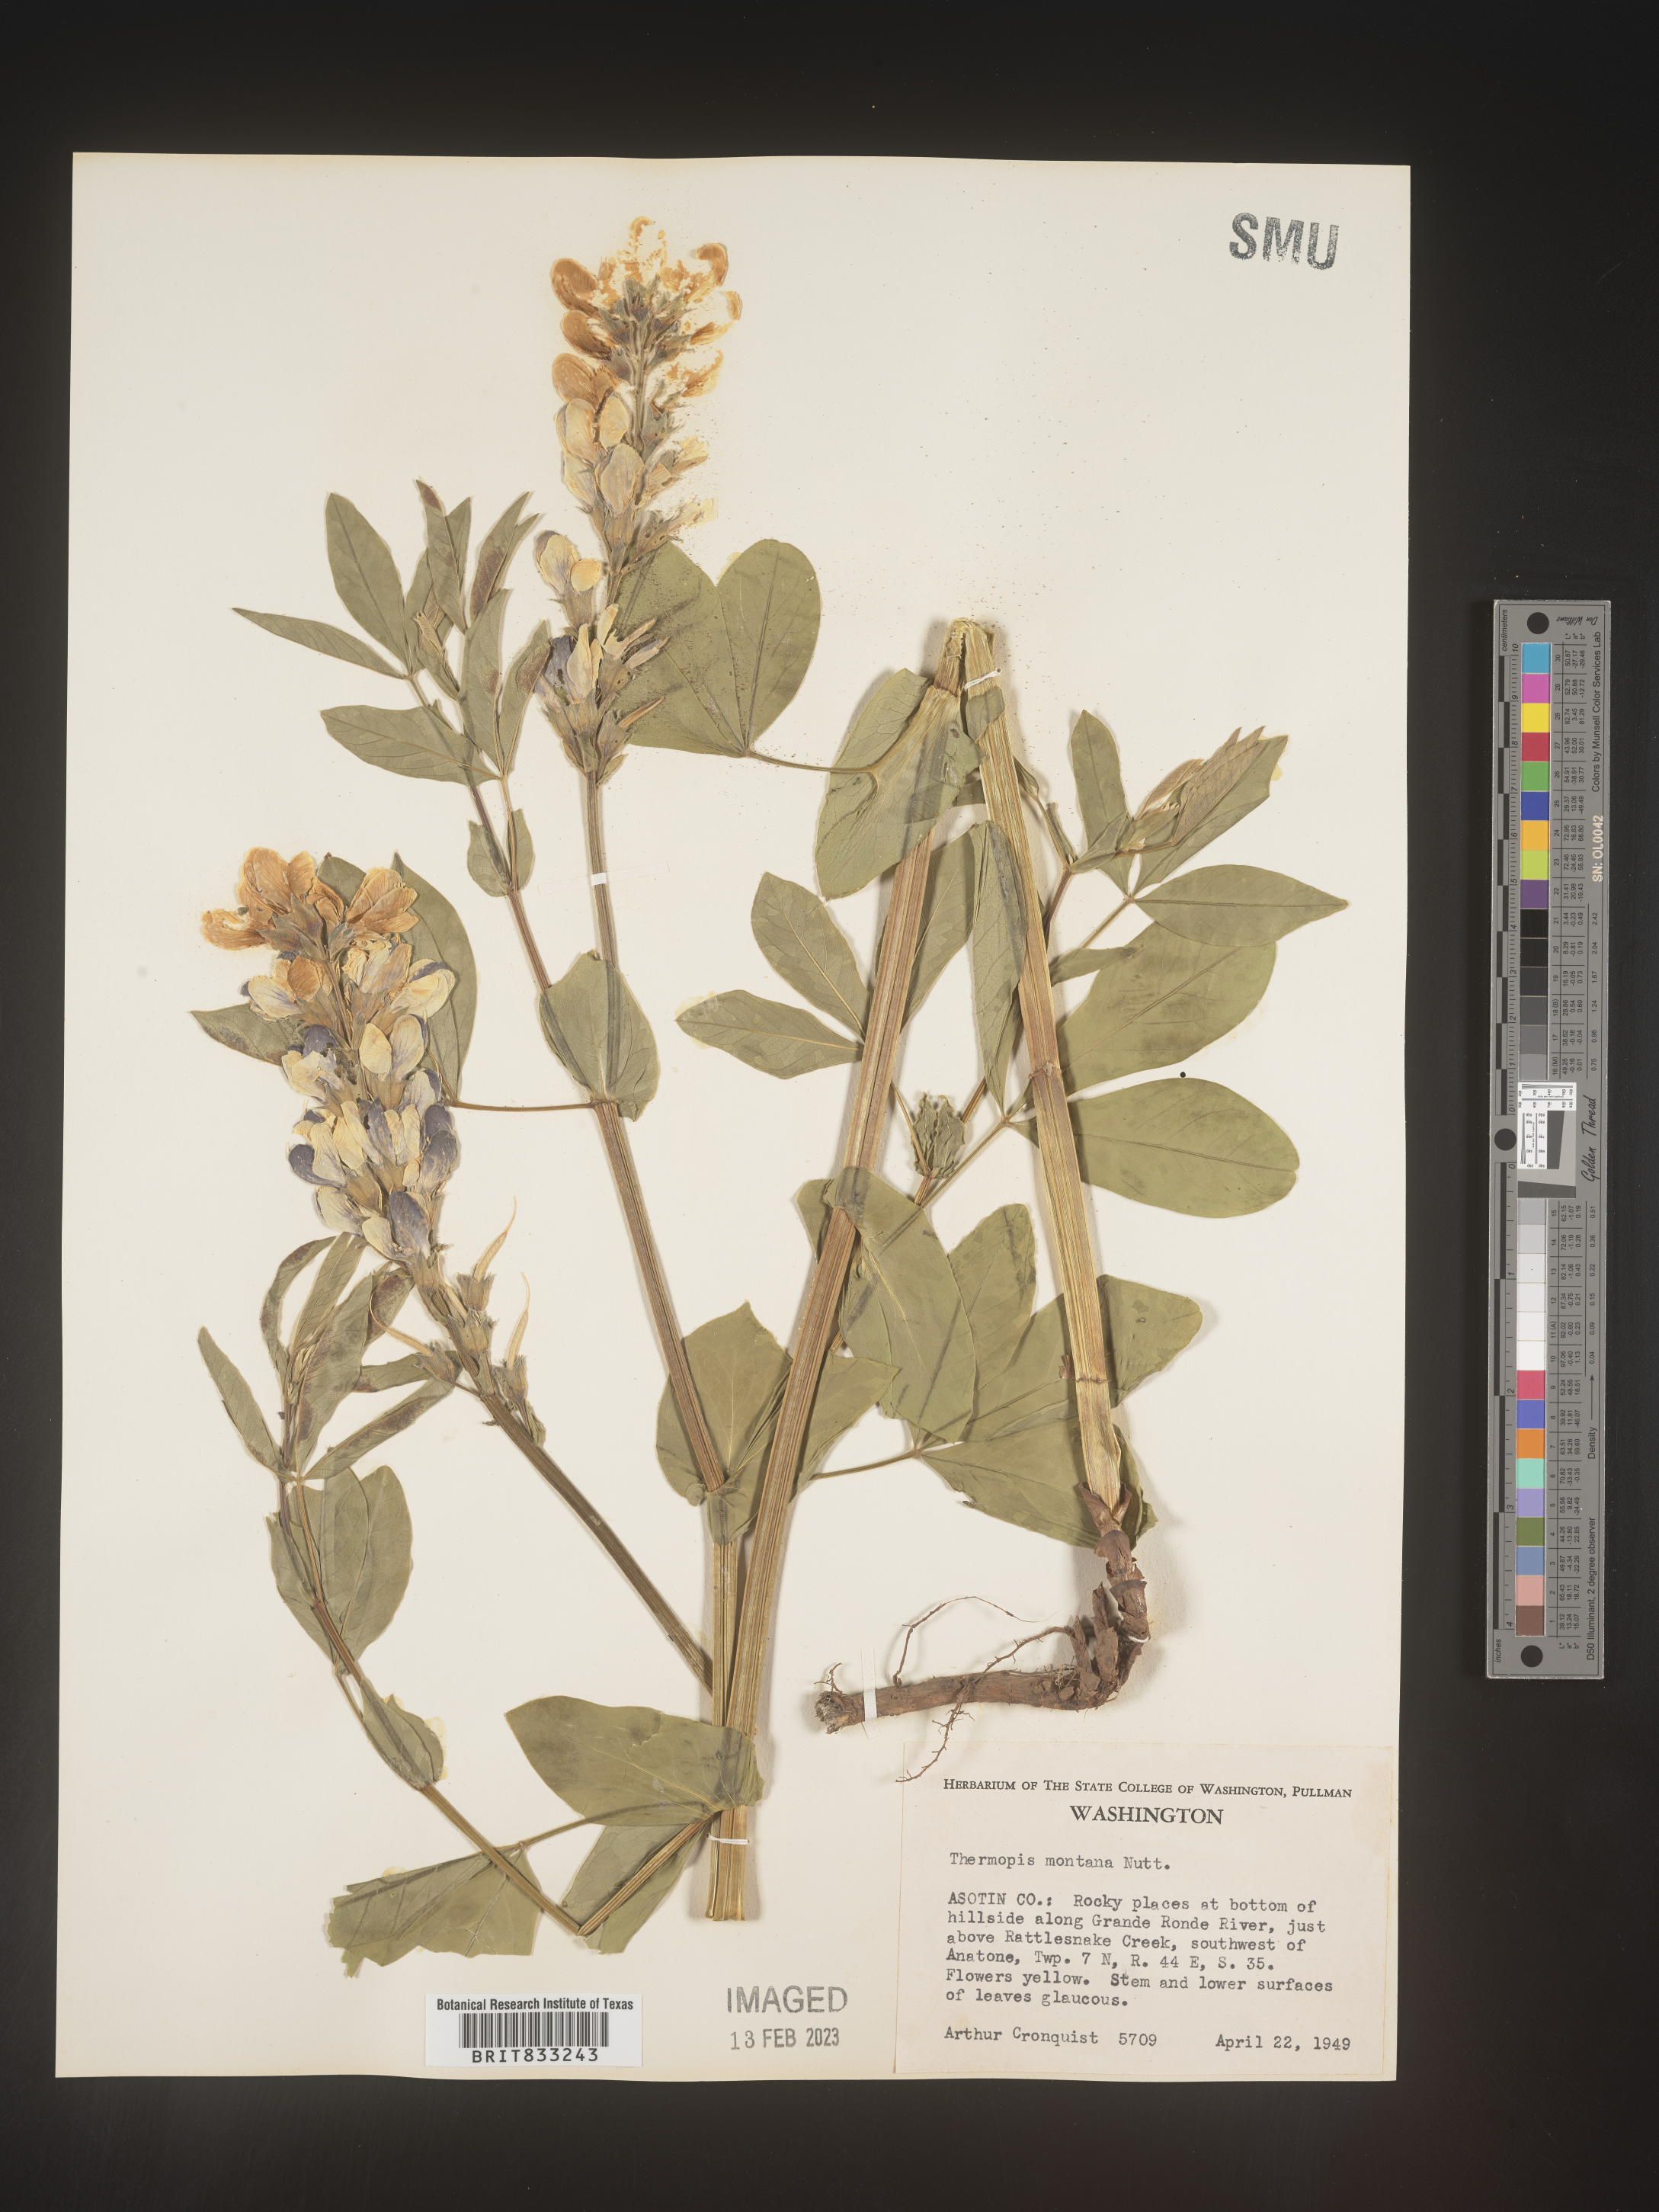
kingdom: Plantae
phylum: Tracheophyta
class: Magnoliopsida
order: Fabales
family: Fabaceae
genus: Thermopsis
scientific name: Thermopsis montana
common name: False lupin
